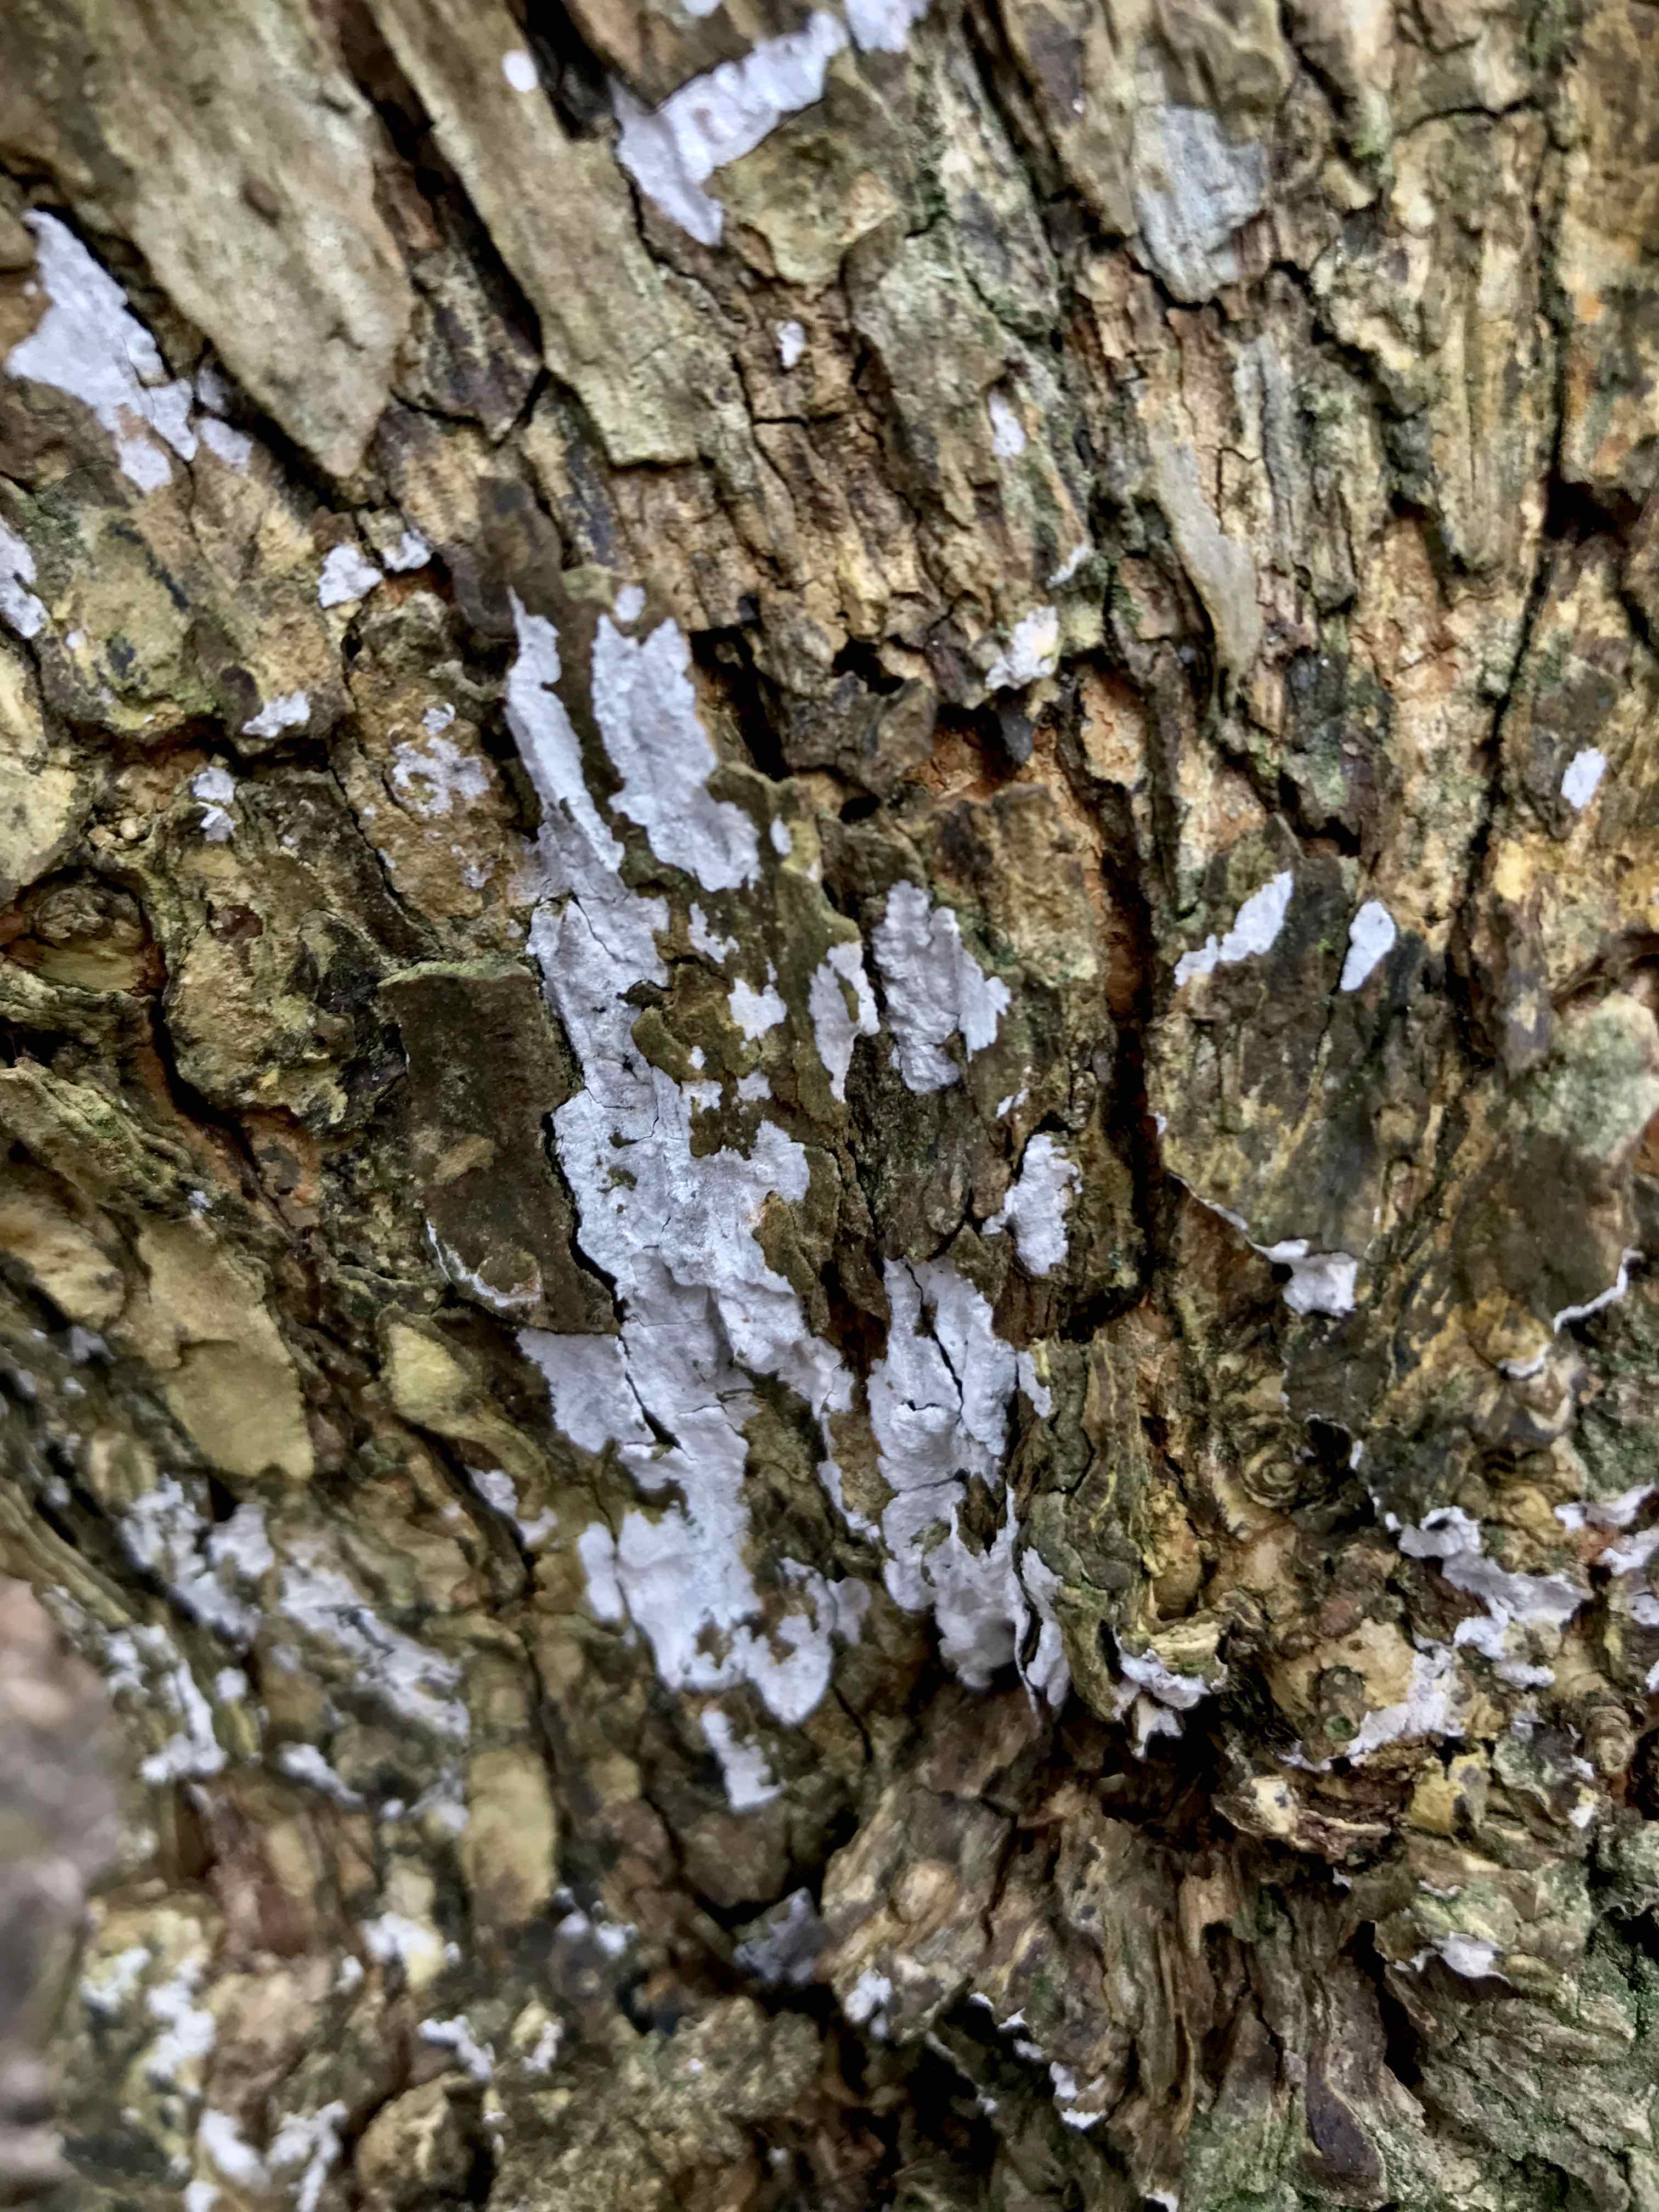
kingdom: Fungi
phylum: Basidiomycota
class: Agaricomycetes
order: Agaricales
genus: Dendrothele
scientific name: Dendrothele acerina
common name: navr-kalkplet
